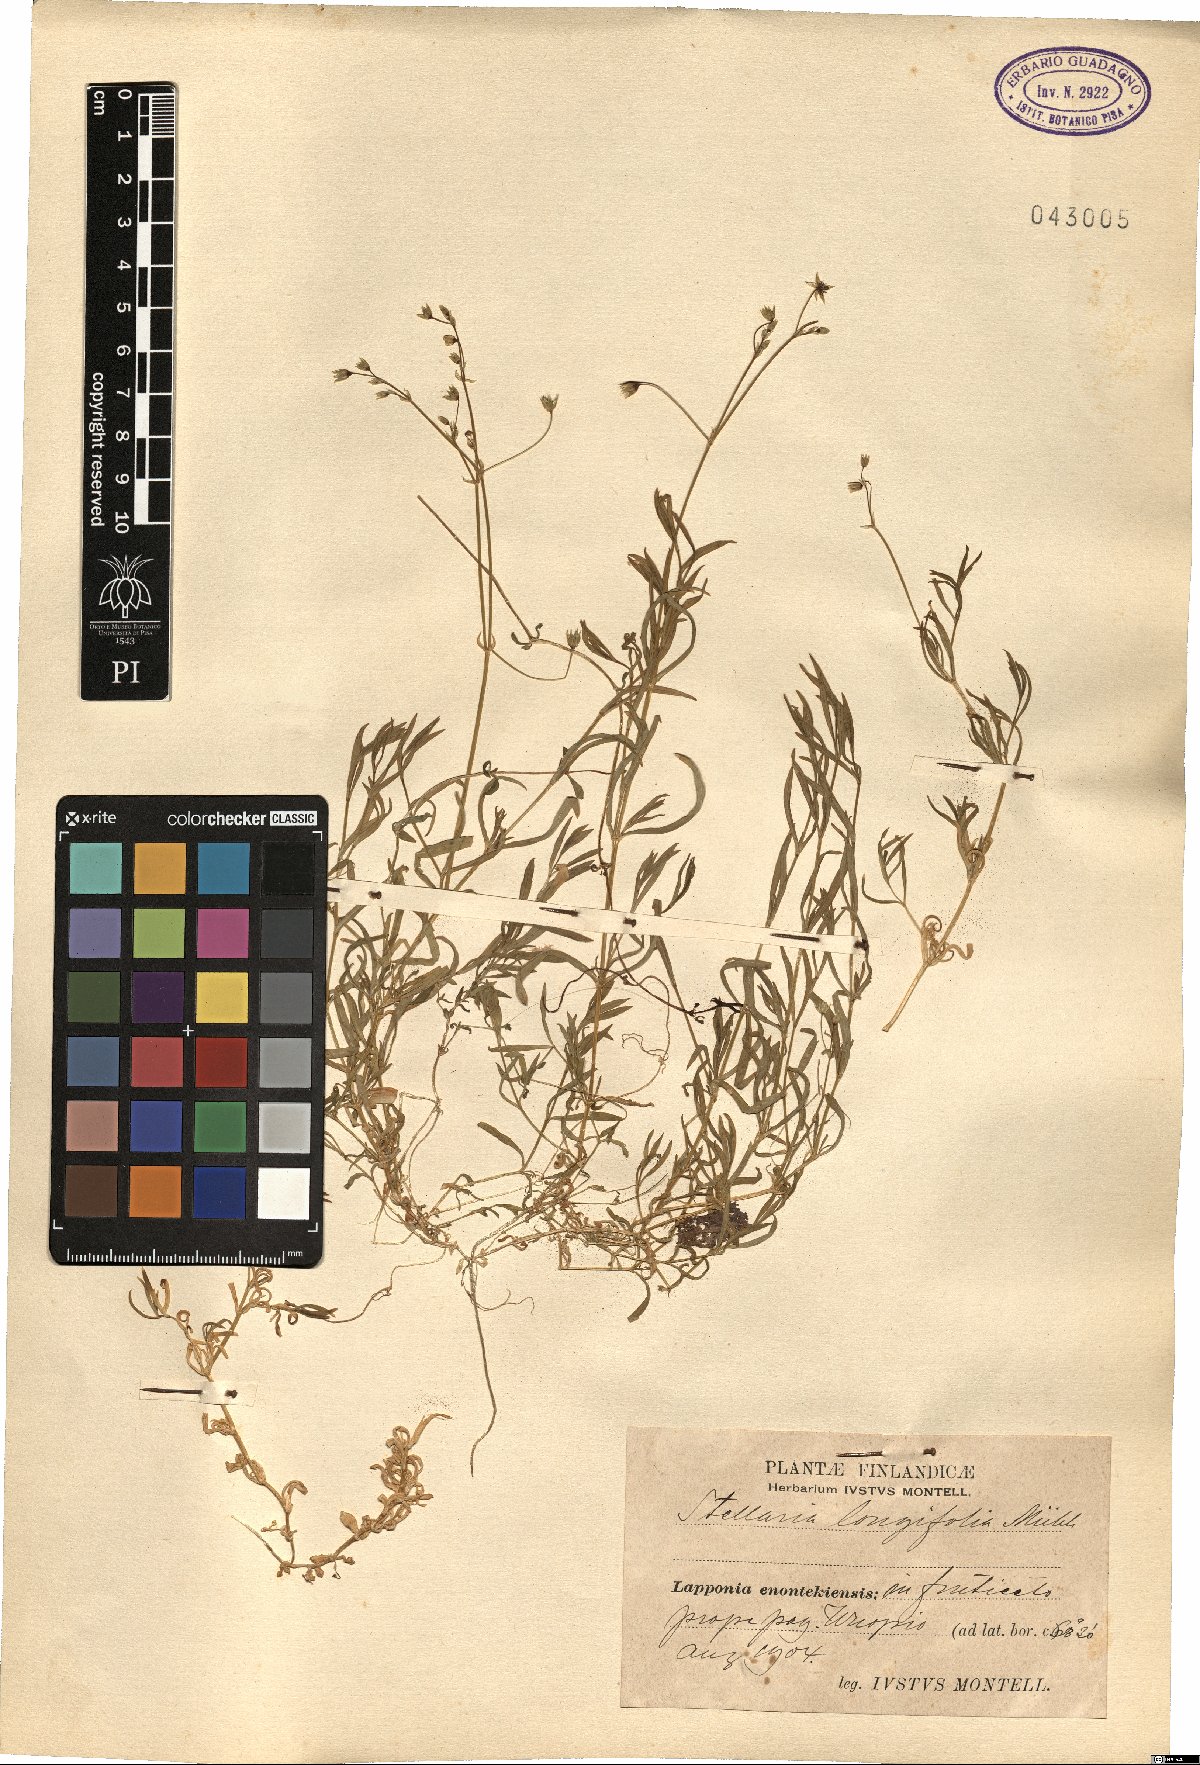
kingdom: Plantae
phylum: Tracheophyta
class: Magnoliopsida
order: Caryophyllales
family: Caryophyllaceae
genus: Stellaria
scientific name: Stellaria longifolia
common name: Long-leaved chickweed
